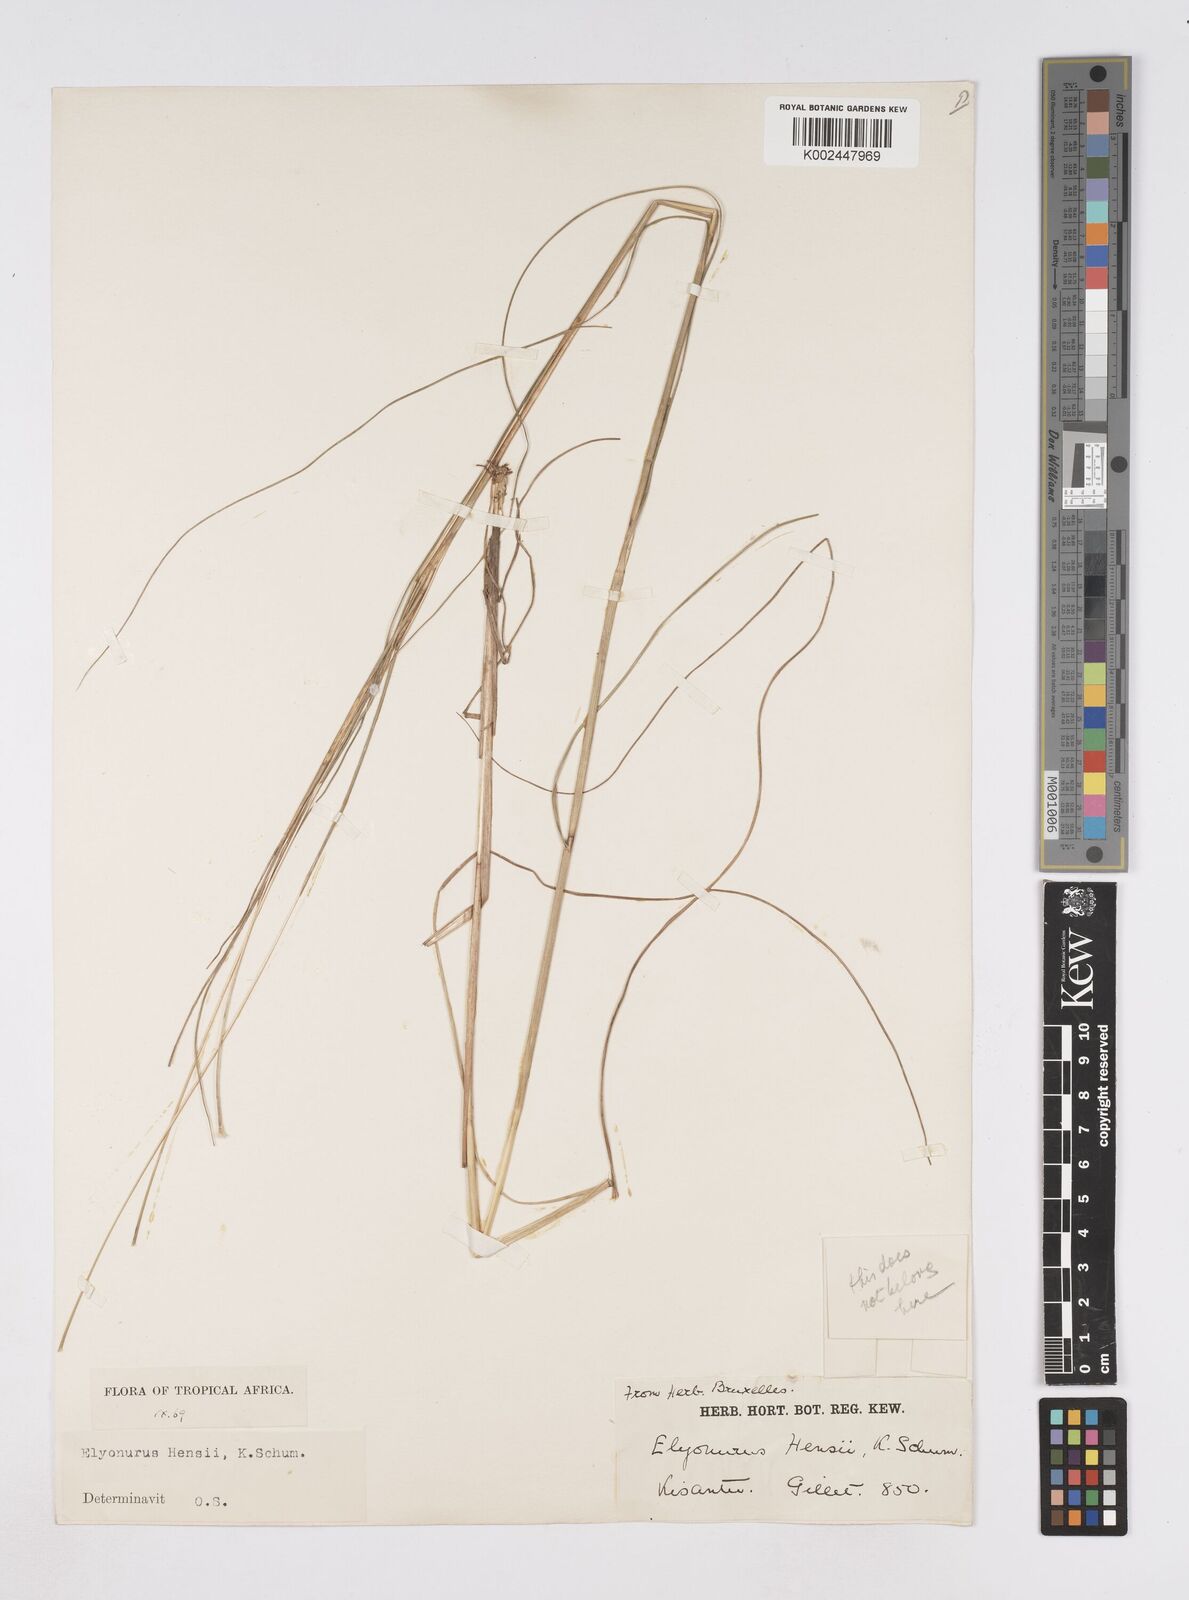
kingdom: Plantae
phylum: Tracheophyta
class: Liliopsida
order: Poales
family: Poaceae
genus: Elionurus
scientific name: Elionurus hensii
